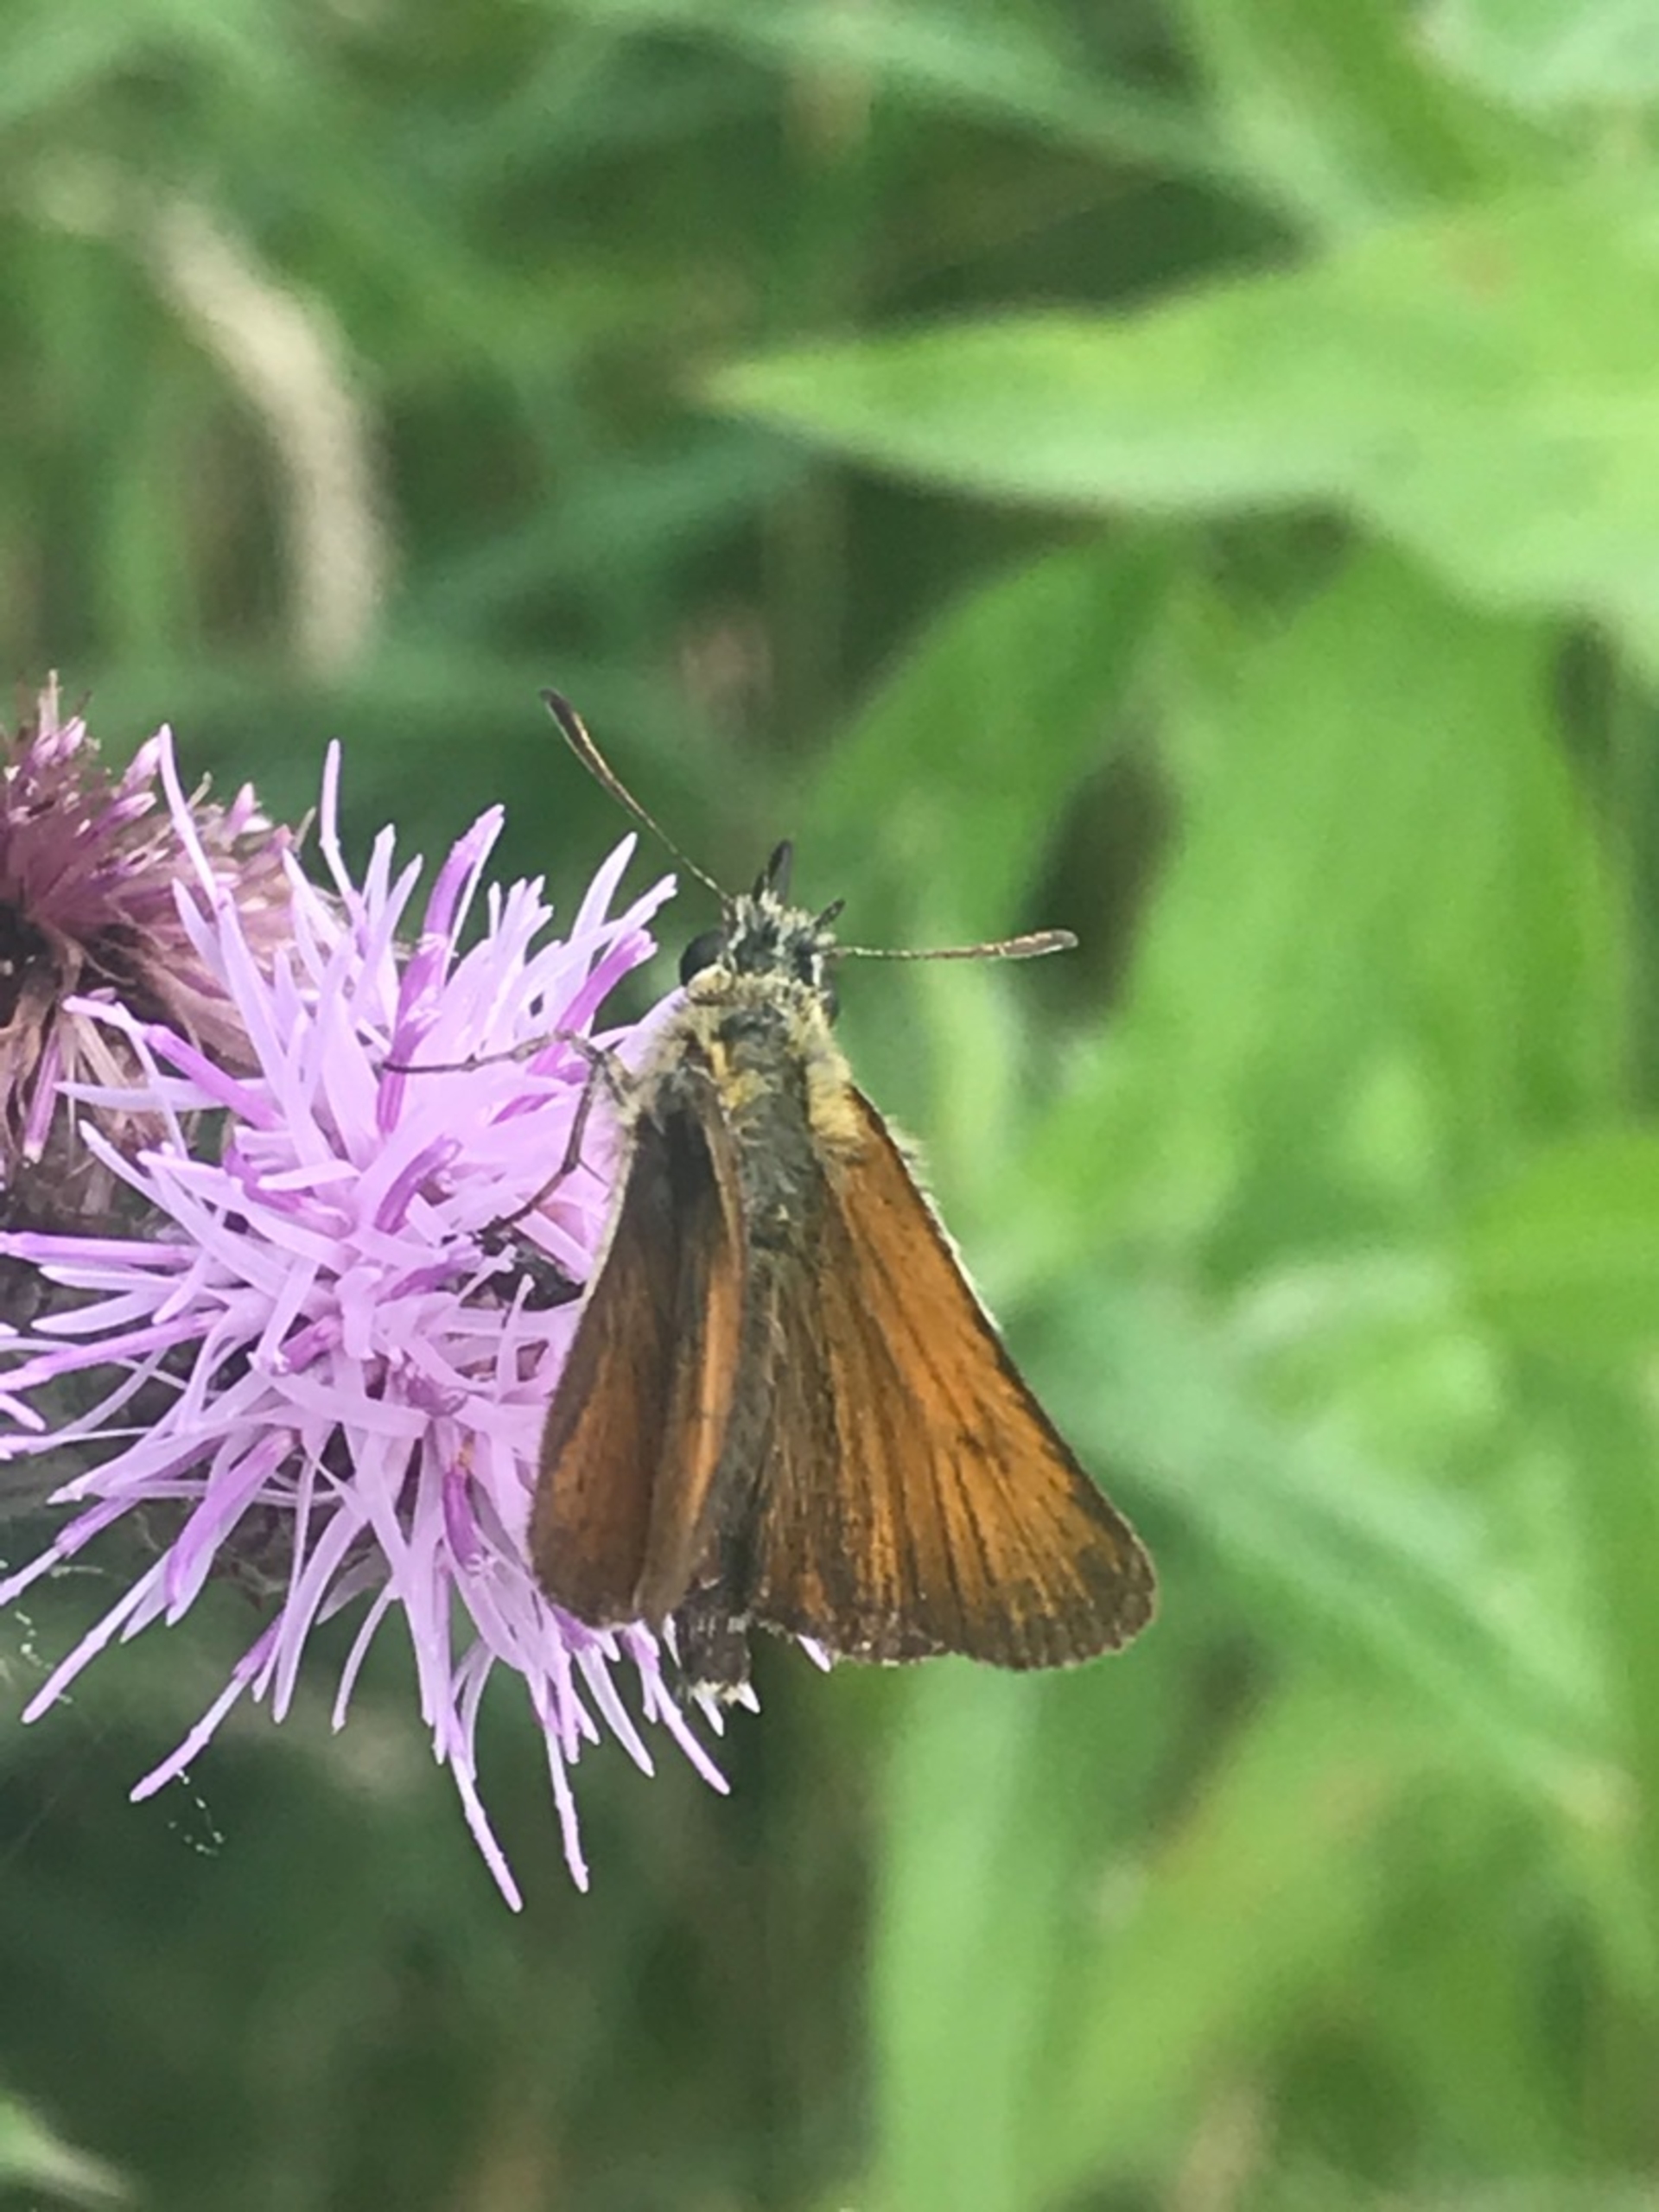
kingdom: Animalia
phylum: Arthropoda
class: Insecta
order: Lepidoptera
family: Hesperiidae
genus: Thymelicus
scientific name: Thymelicus lineola
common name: Stregbredpande
